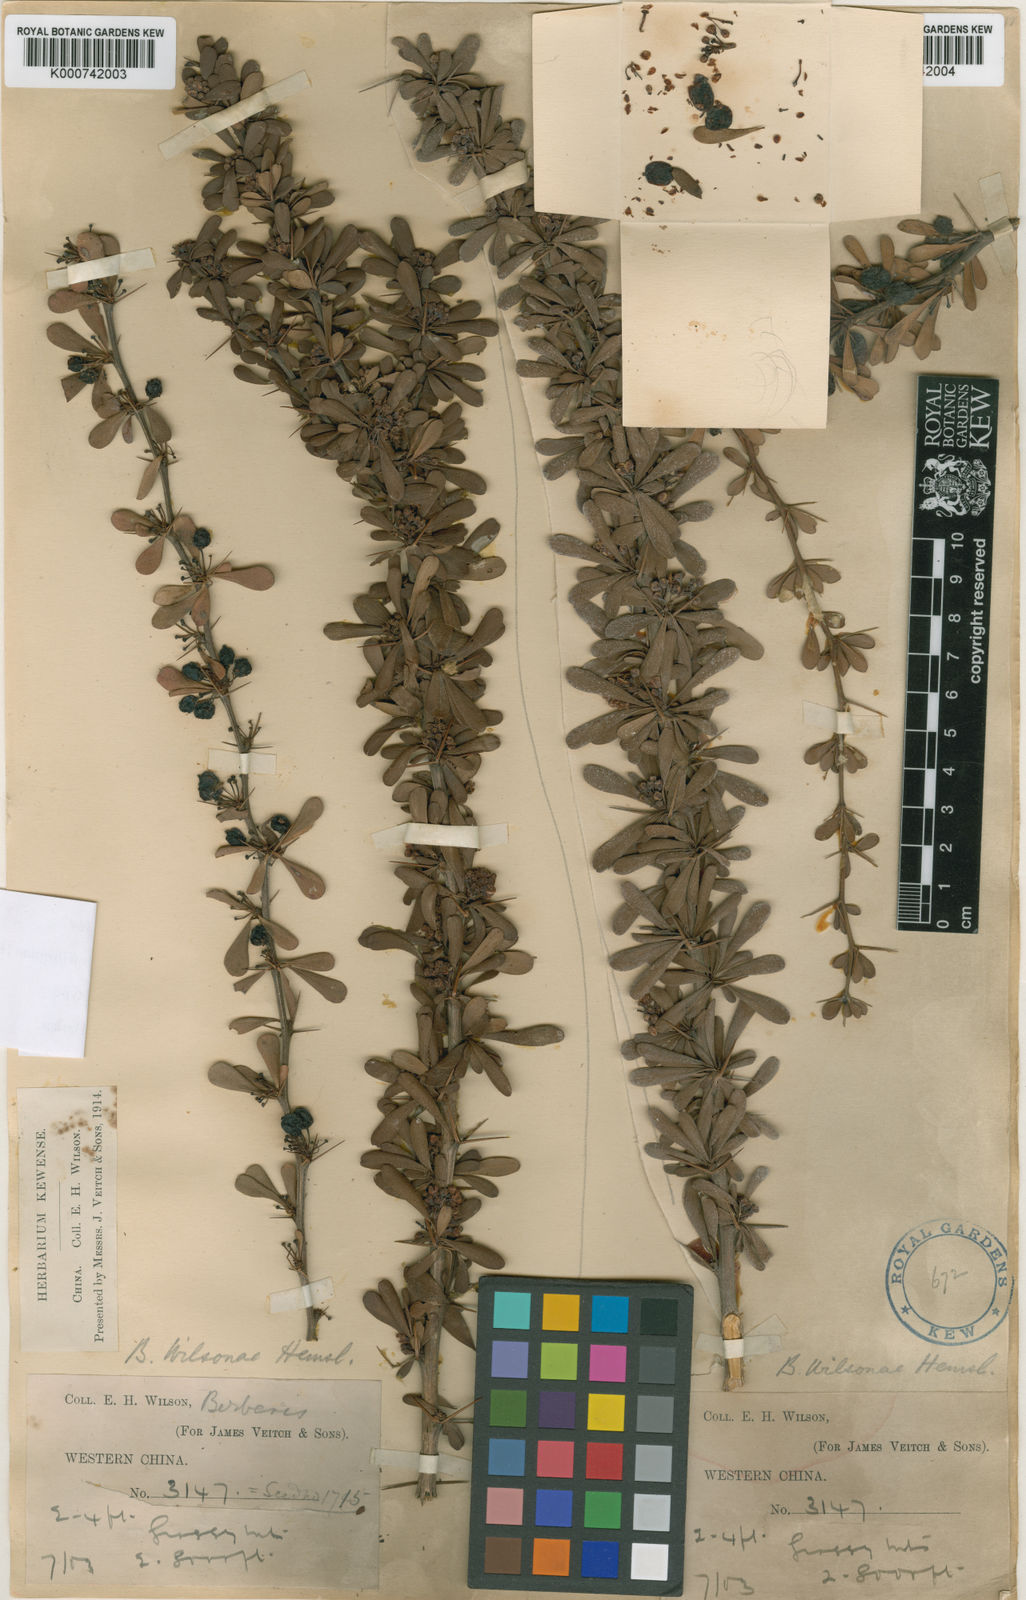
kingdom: Plantae
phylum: Tracheophyta
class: Magnoliopsida
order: Ranunculales
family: Berberidaceae
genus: Berberis
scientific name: Berberis wilsoniae
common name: Mrs wilson's barberry
